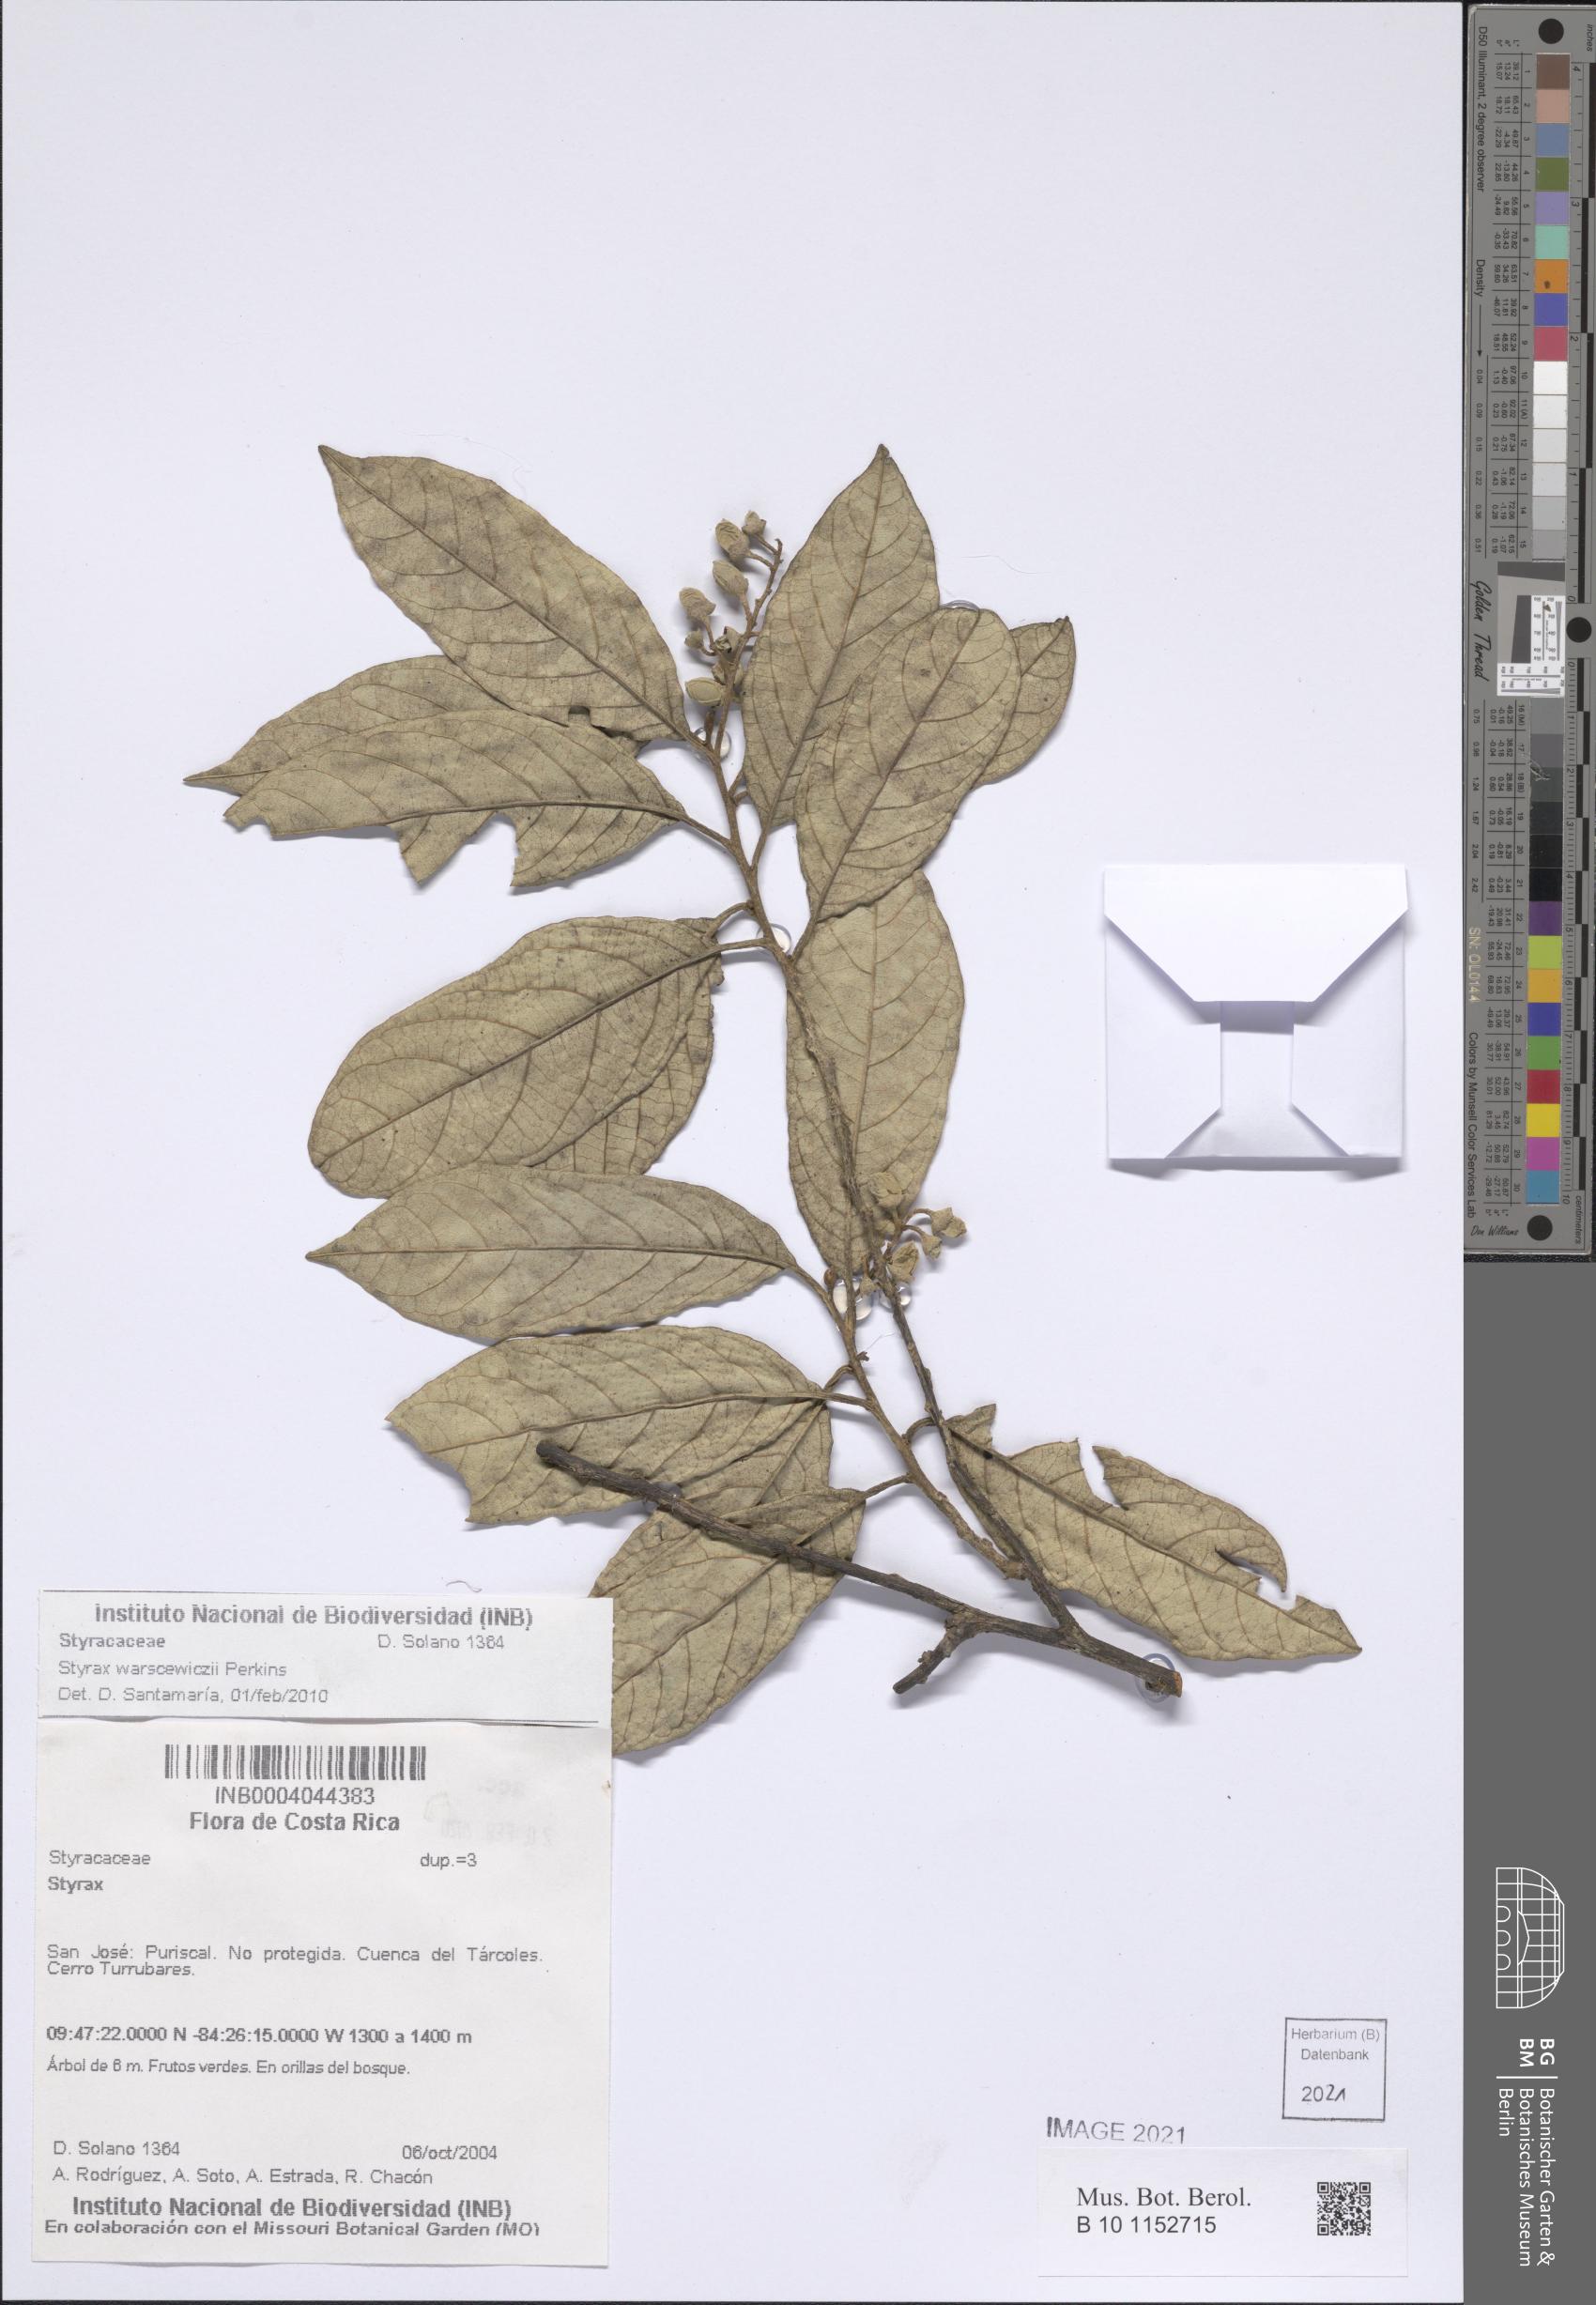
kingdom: Plantae
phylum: Tracheophyta
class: Magnoliopsida
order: Ericales
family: Styracaceae
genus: Styrax
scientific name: Styrax warscewiczii
